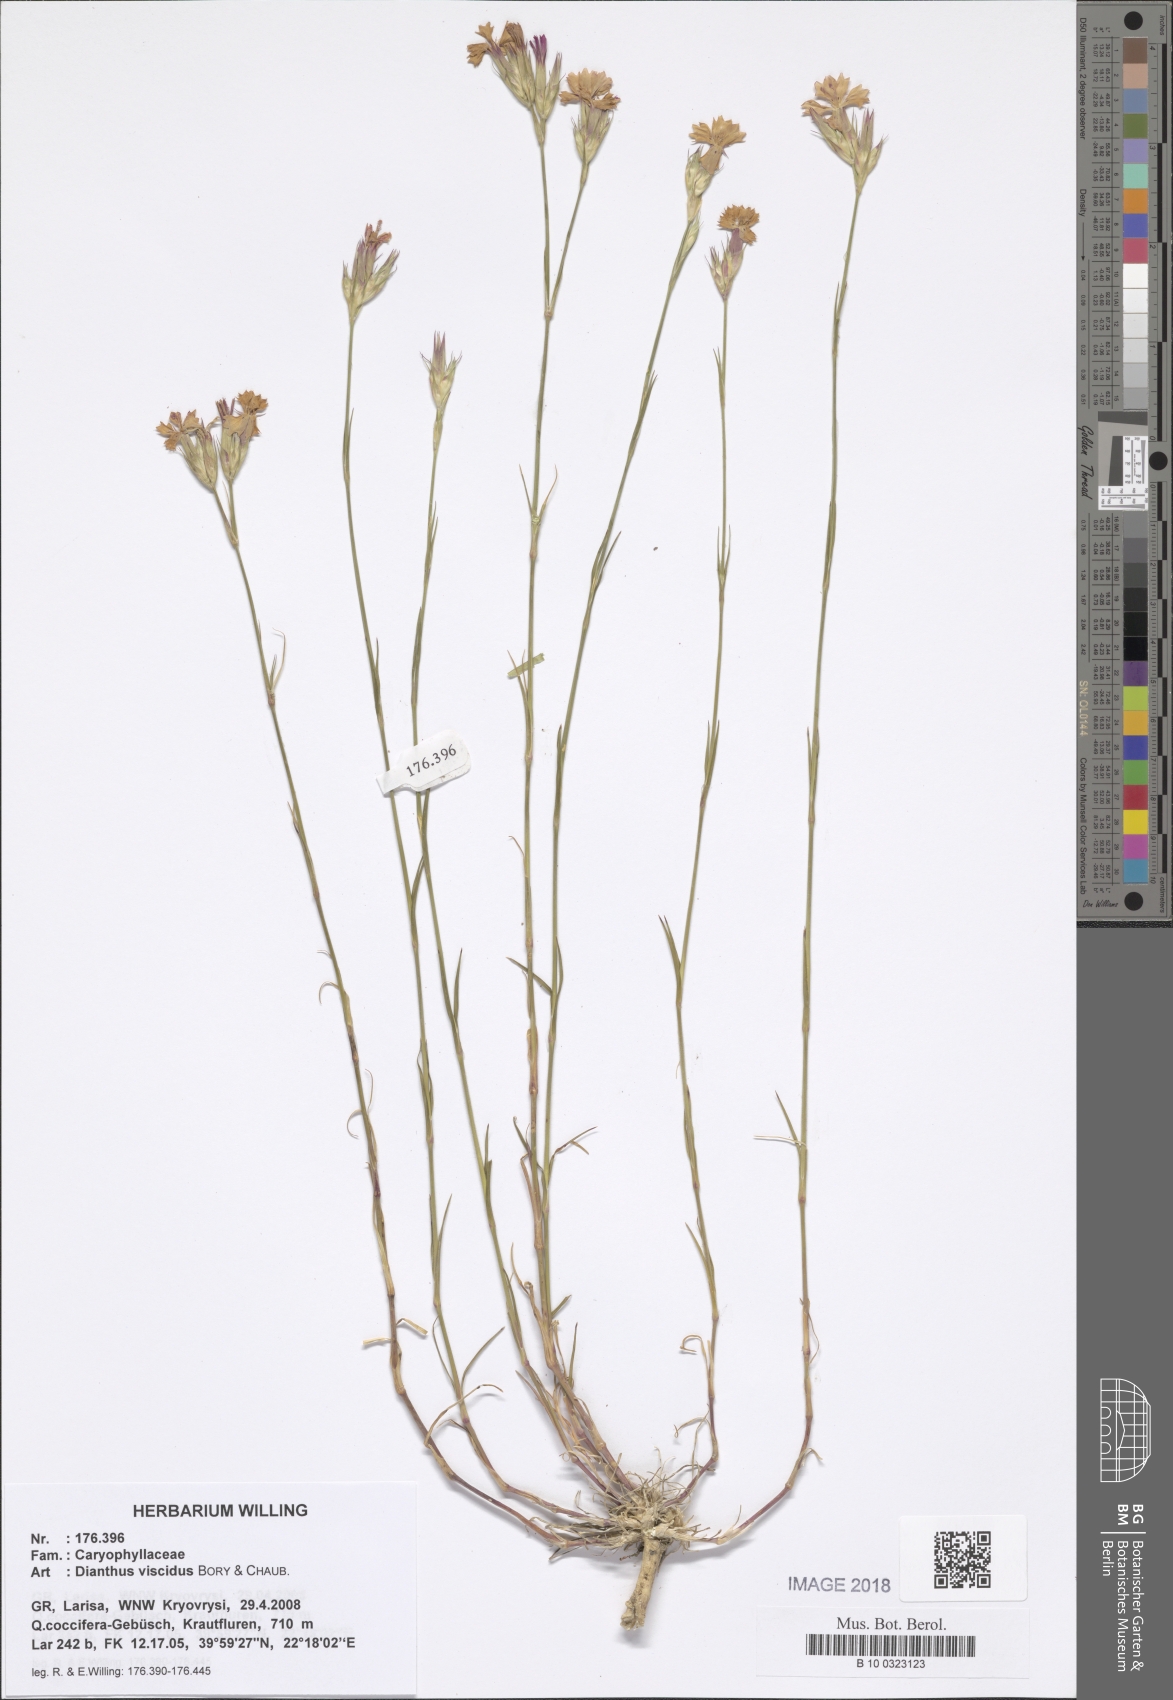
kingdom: Plantae
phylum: Tracheophyta
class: Magnoliopsida
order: Caryophyllales
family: Caryophyllaceae
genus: Dianthus
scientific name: Dianthus viscidus
